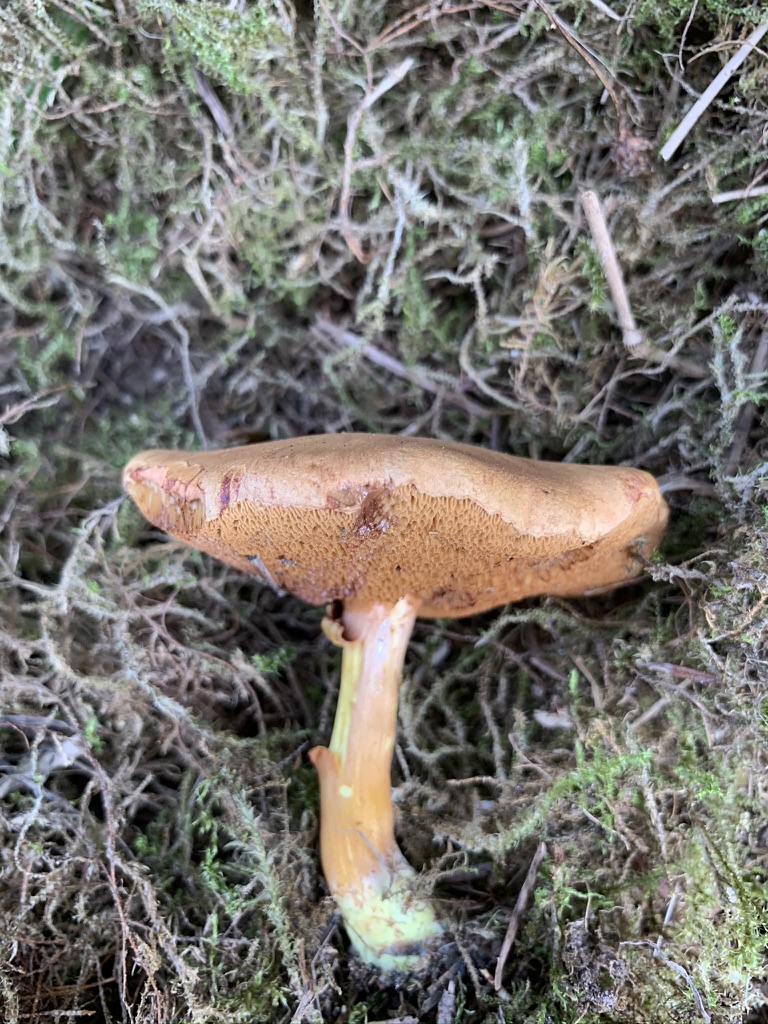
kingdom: Fungi
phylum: Basidiomycota
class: Agaricomycetes
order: Boletales
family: Boletaceae
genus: Chalciporus
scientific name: Chalciporus piperatus
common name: peberrørhat
